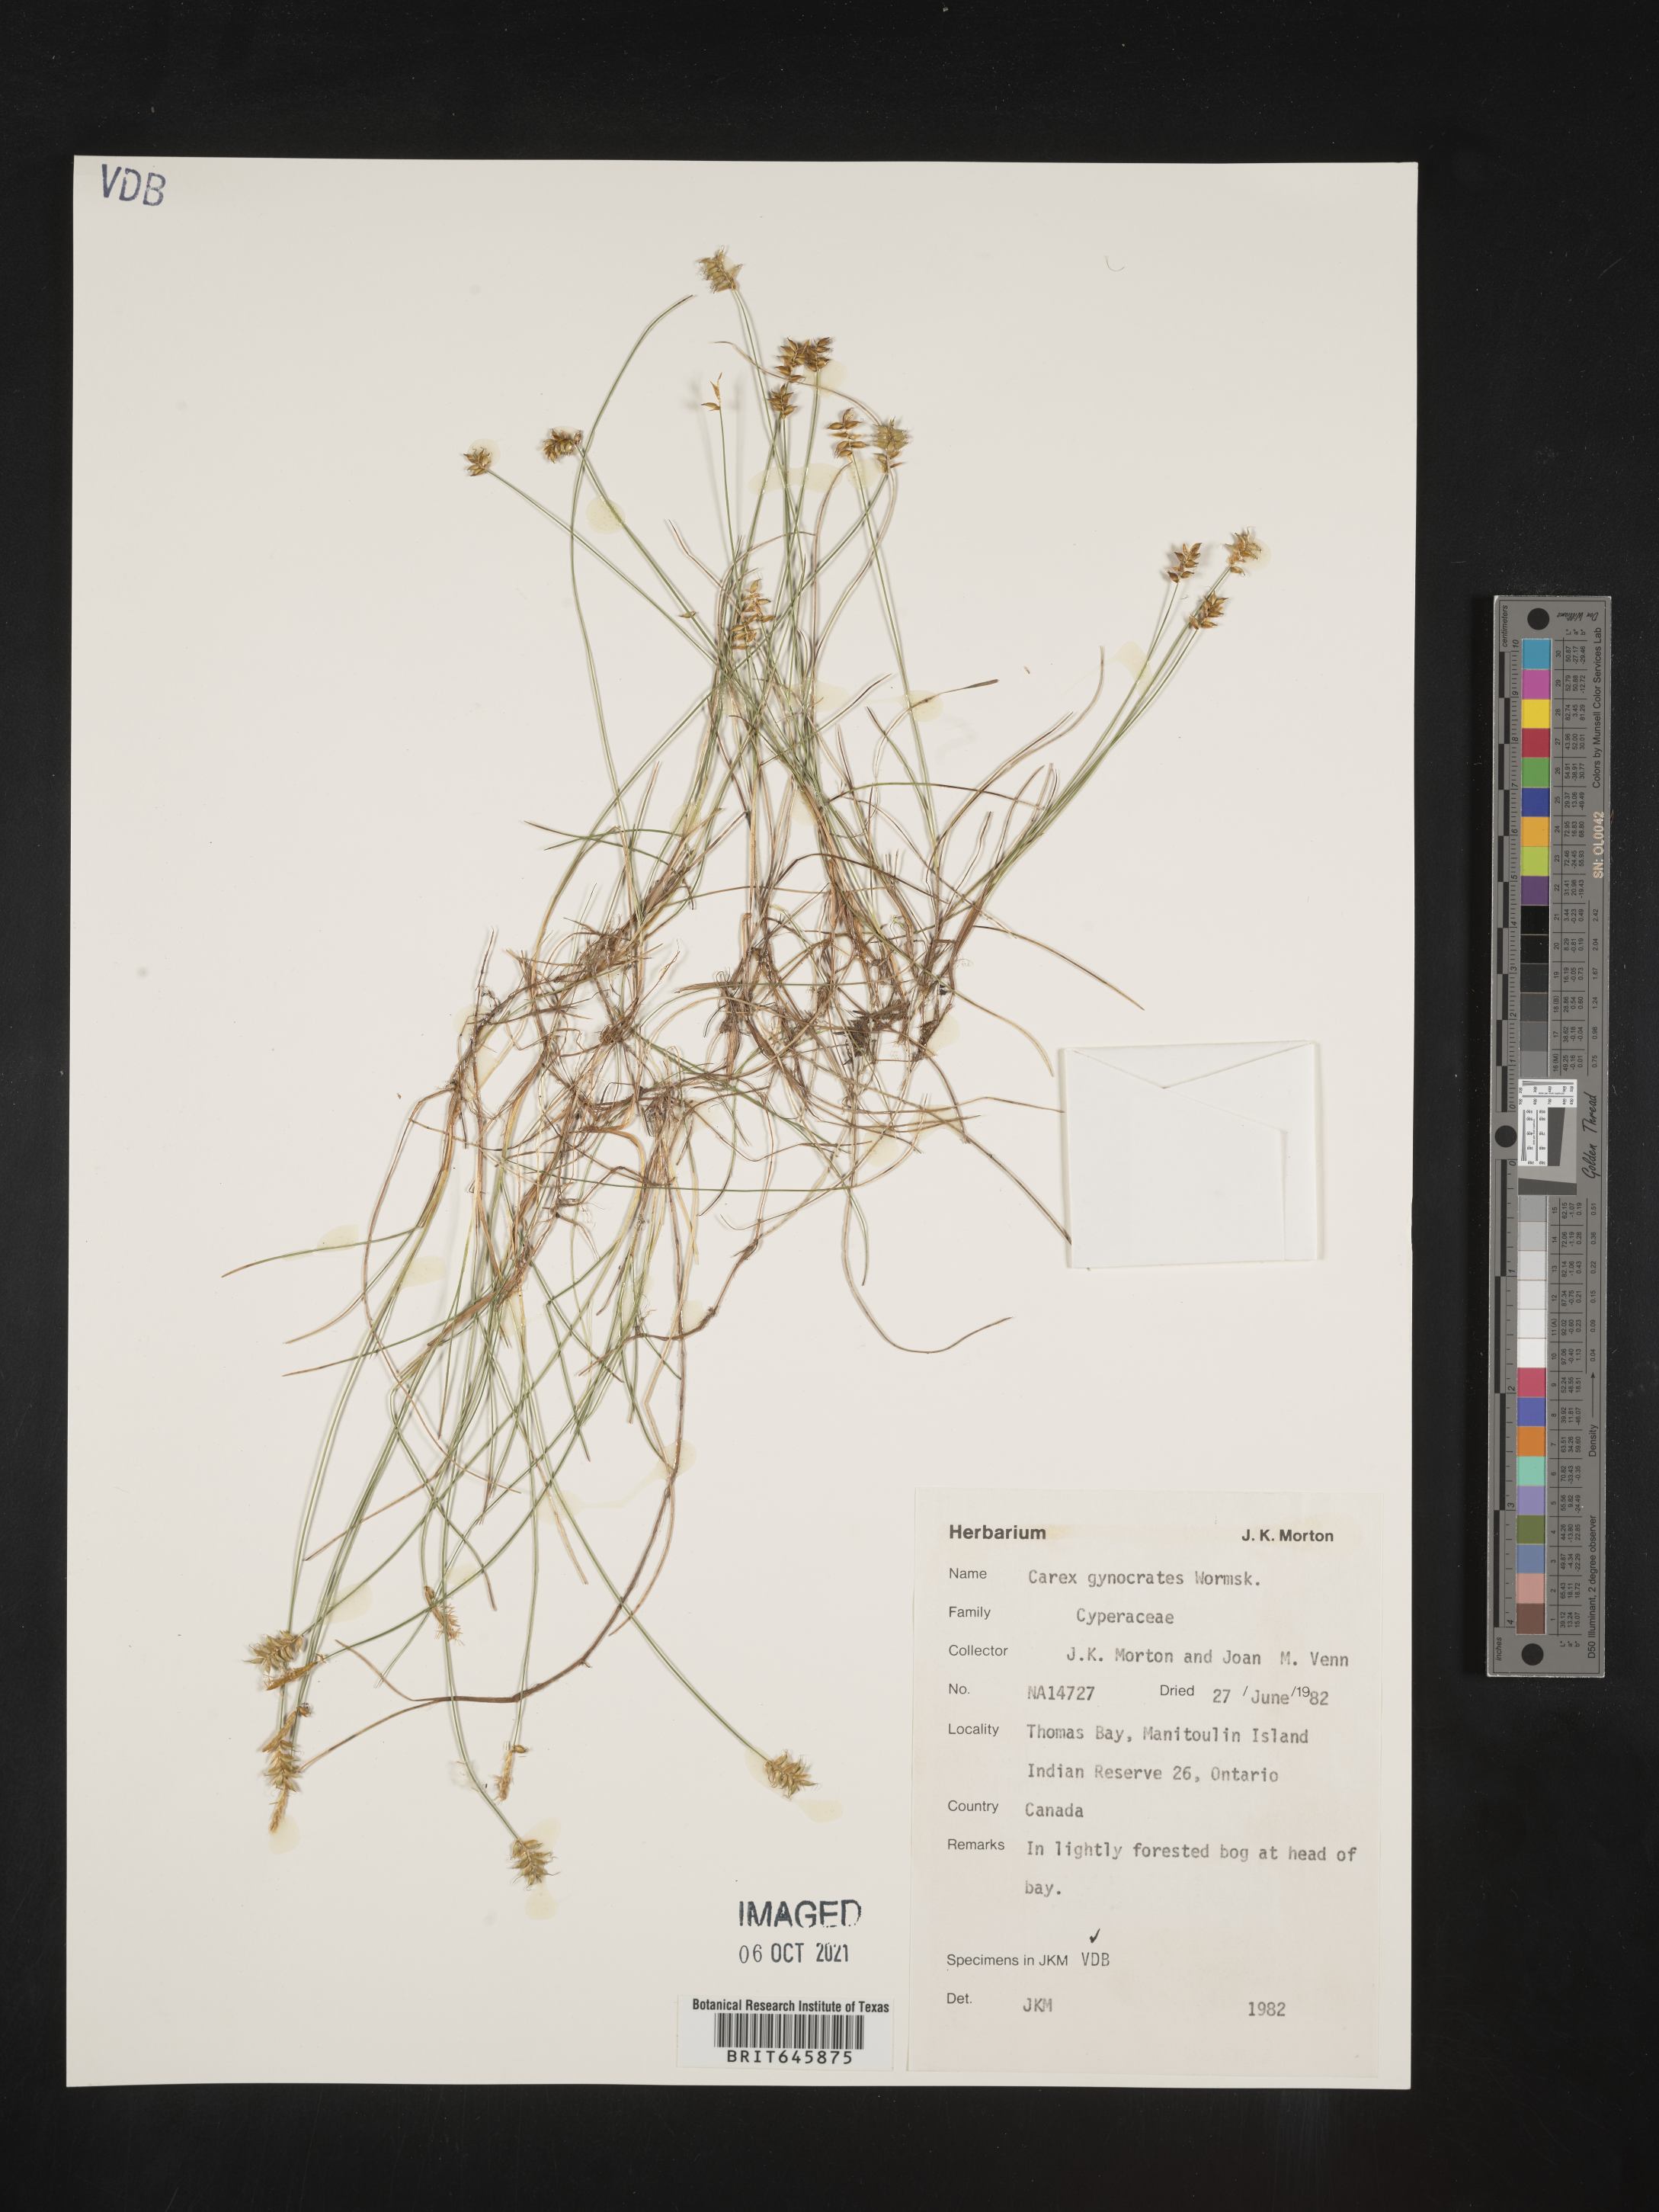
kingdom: Plantae
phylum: Tracheophyta
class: Liliopsida
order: Poales
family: Cyperaceae
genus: Carex
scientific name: Carex nardina
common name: Nard sedge
